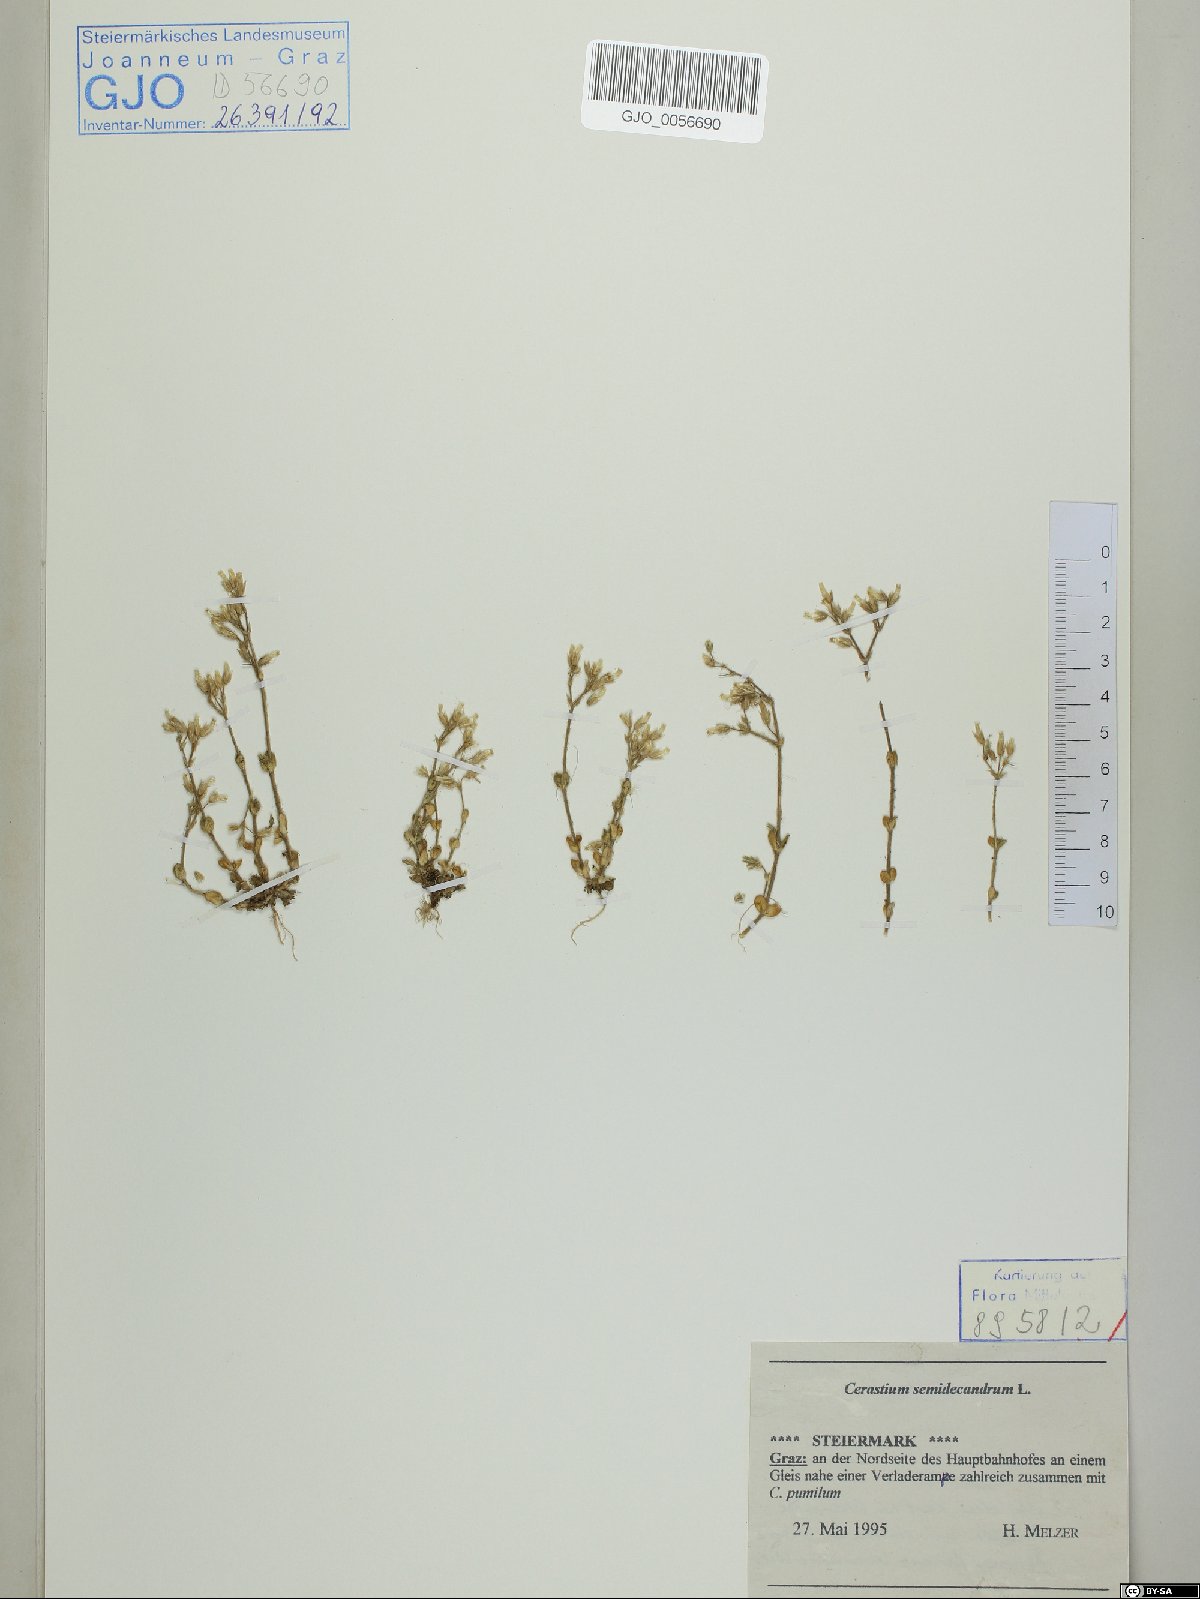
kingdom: Plantae
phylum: Tracheophyta
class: Magnoliopsida
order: Caryophyllales
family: Caryophyllaceae
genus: Cerastium
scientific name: Cerastium semidecandrum
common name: Little mouse-ear
